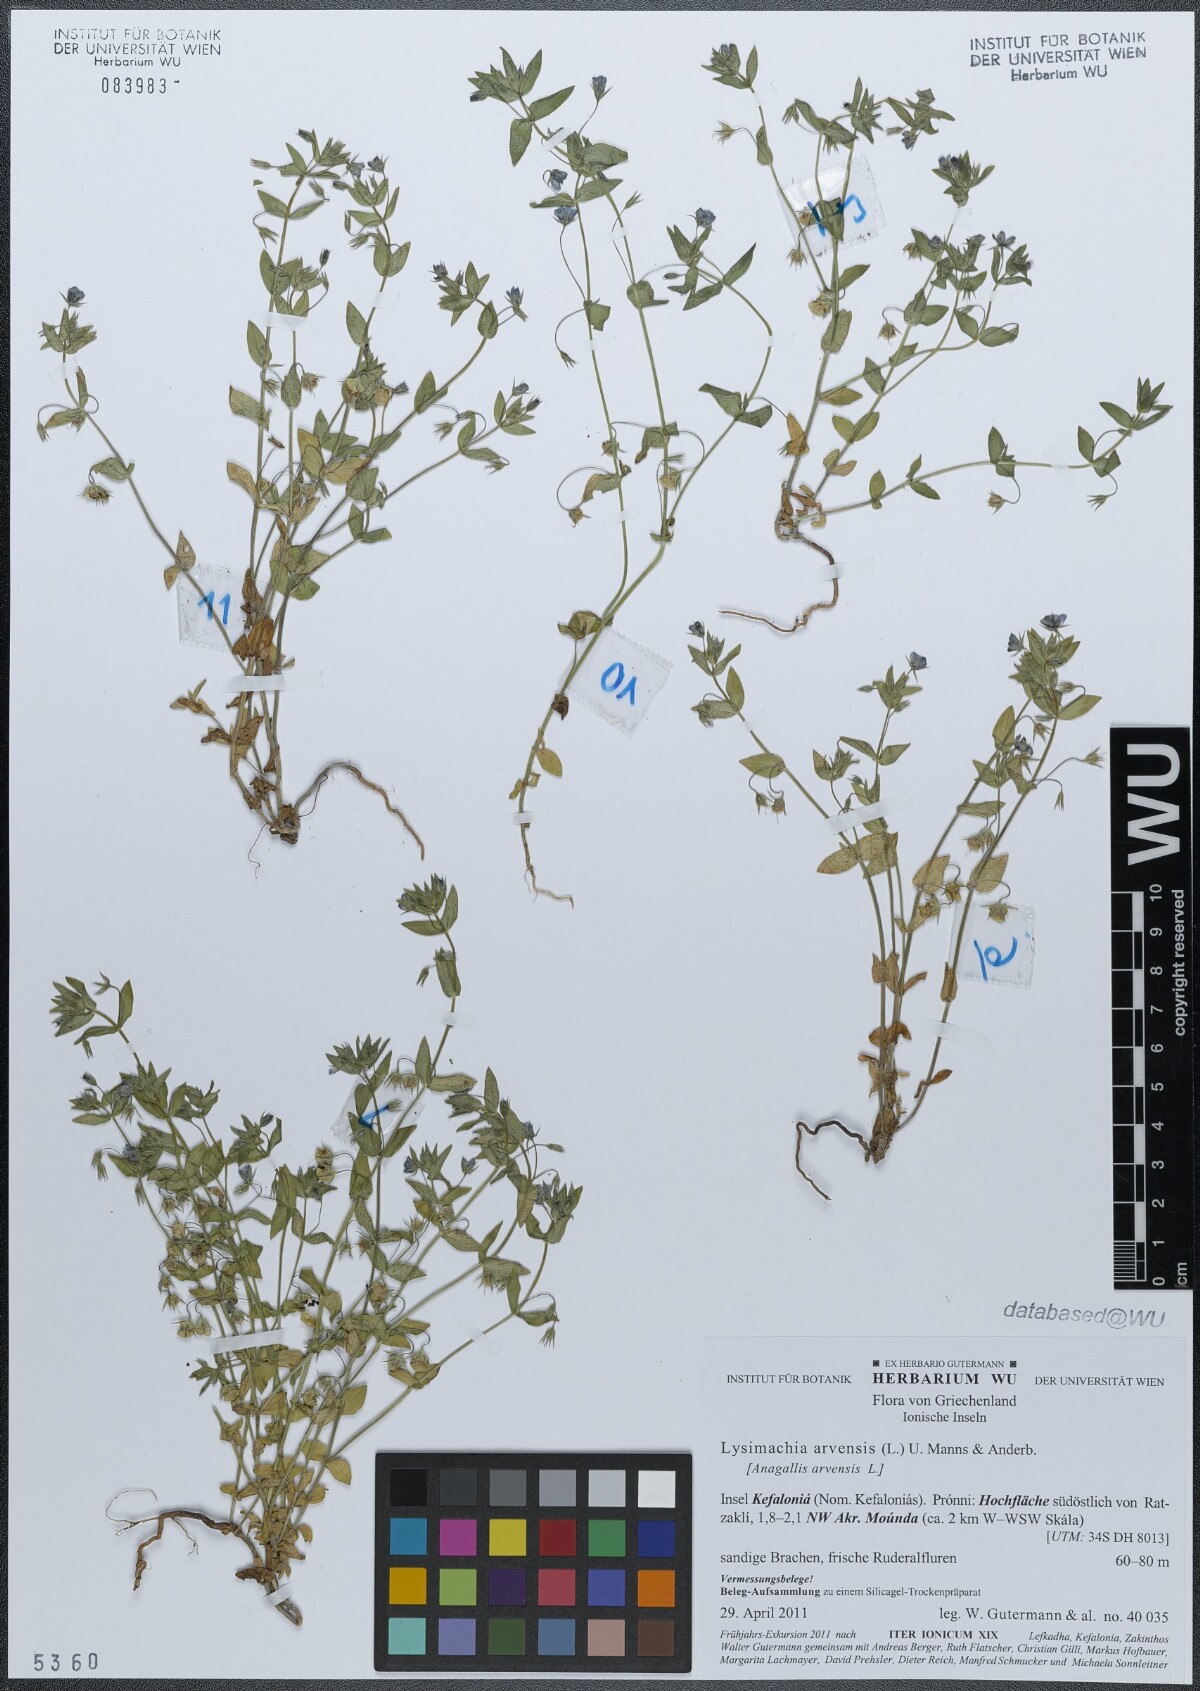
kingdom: Plantae
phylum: Tracheophyta
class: Magnoliopsida
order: Ericales
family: Primulaceae
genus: Lysimachia
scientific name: Lysimachia arvensis
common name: Scarlet pimpernel
